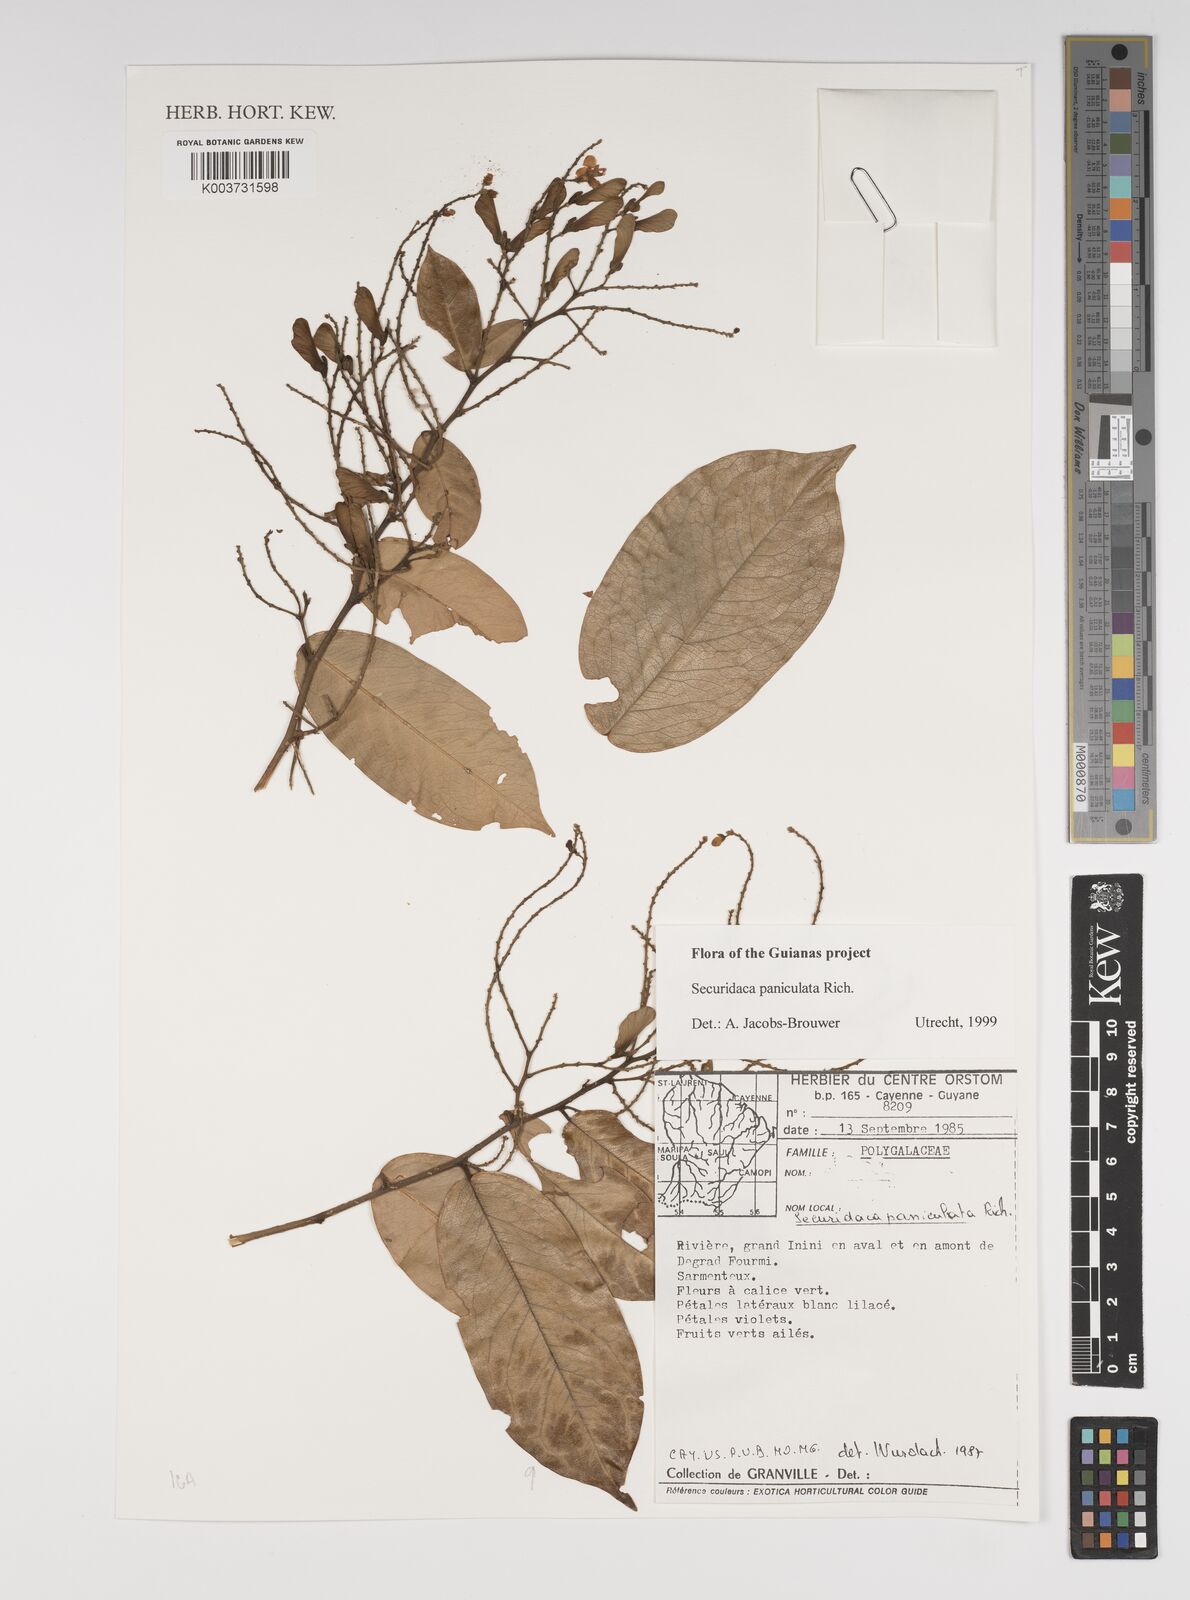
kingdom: Plantae
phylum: Tracheophyta
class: Magnoliopsida
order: Fabales
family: Polygalaceae
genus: Securidaca
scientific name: Securidaca paniculata
